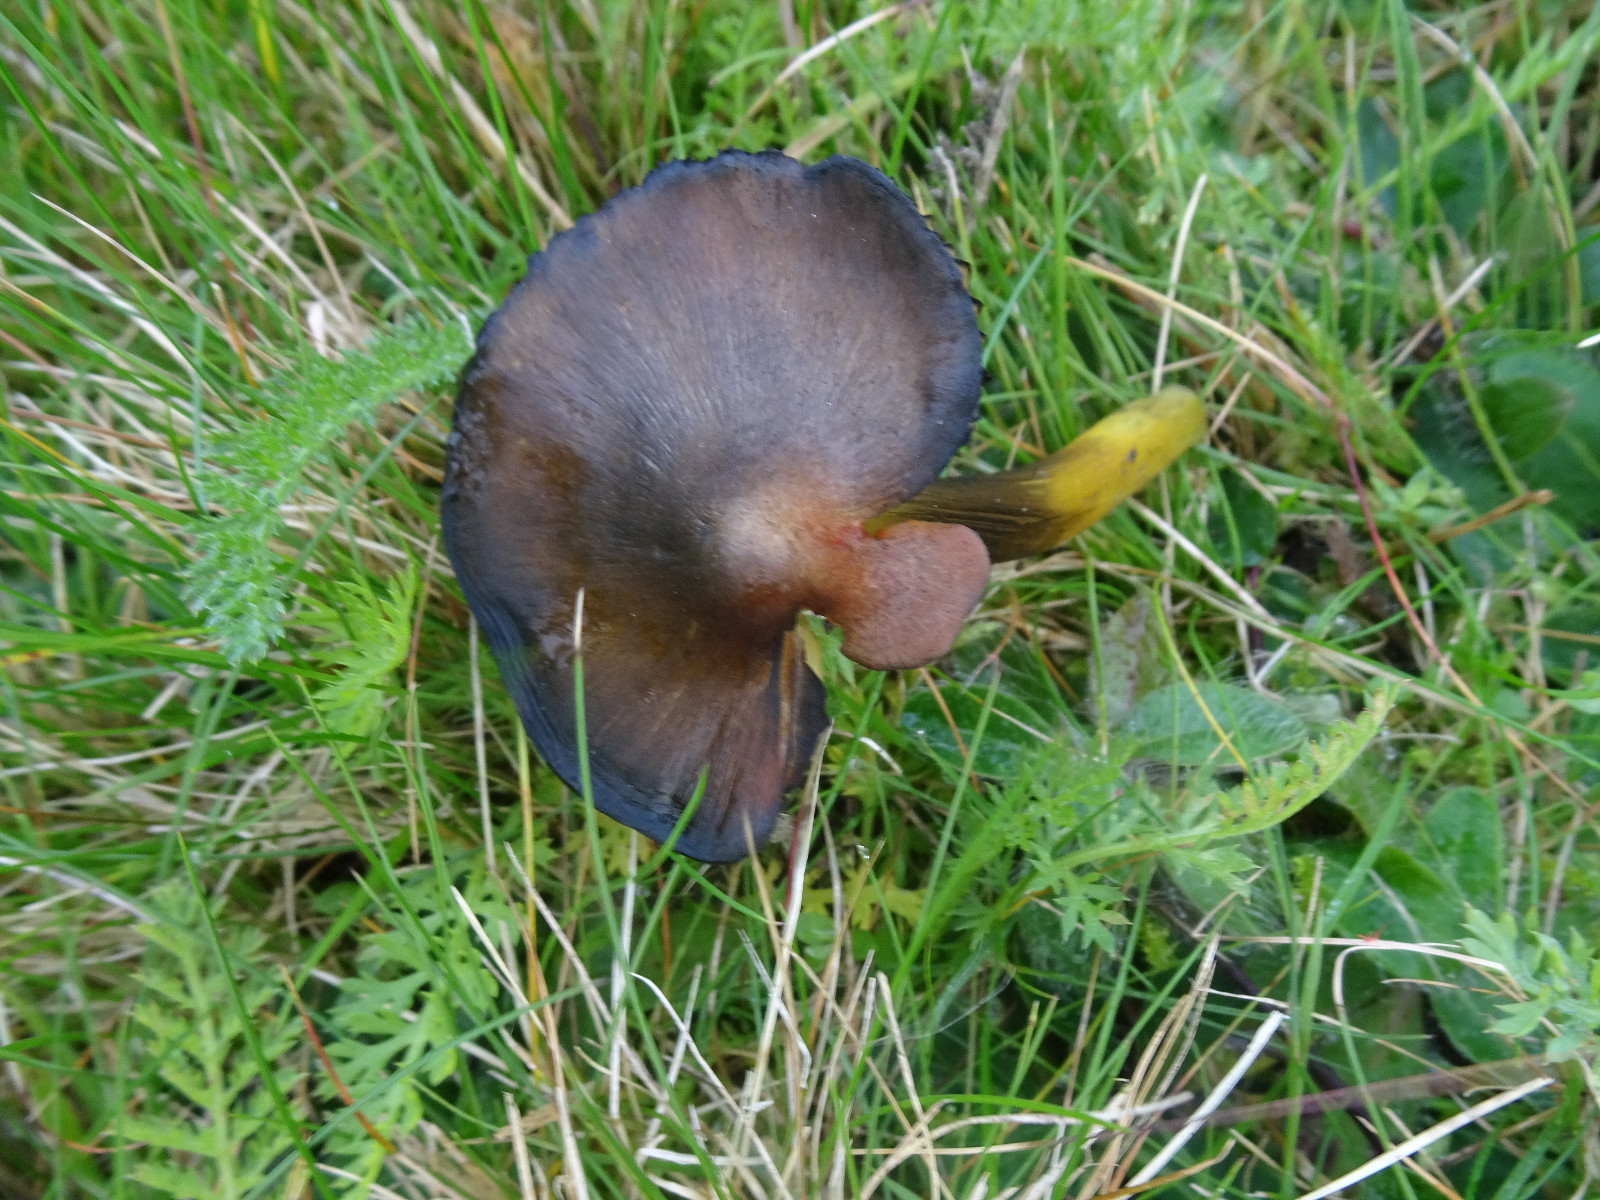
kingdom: Fungi
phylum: Basidiomycota
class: Agaricomycetes
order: Agaricales
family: Hygrophoraceae
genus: Hygrocybe
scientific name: Hygrocybe conica
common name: kegle-vokshat
